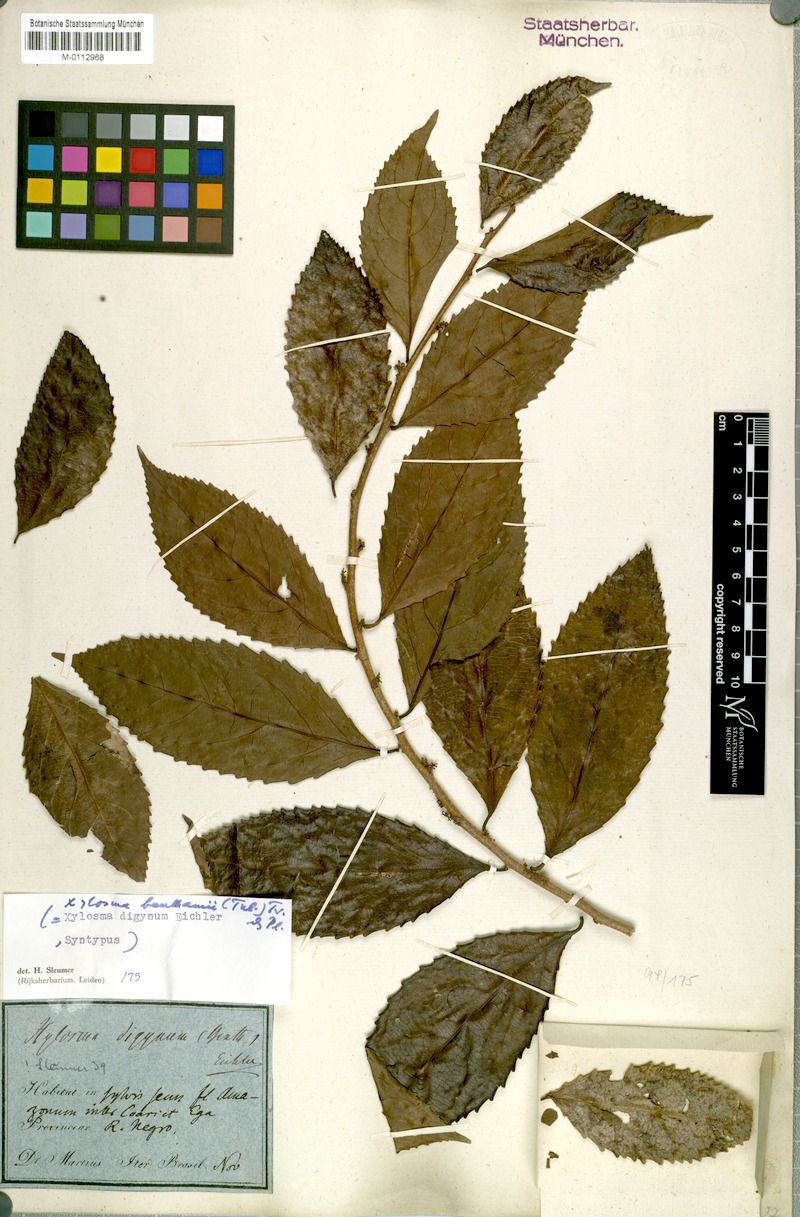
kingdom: Plantae
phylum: Tracheophyta
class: Magnoliopsida
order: Malpighiales
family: Salicaceae
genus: Xylosma
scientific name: Xylosma benthamii
